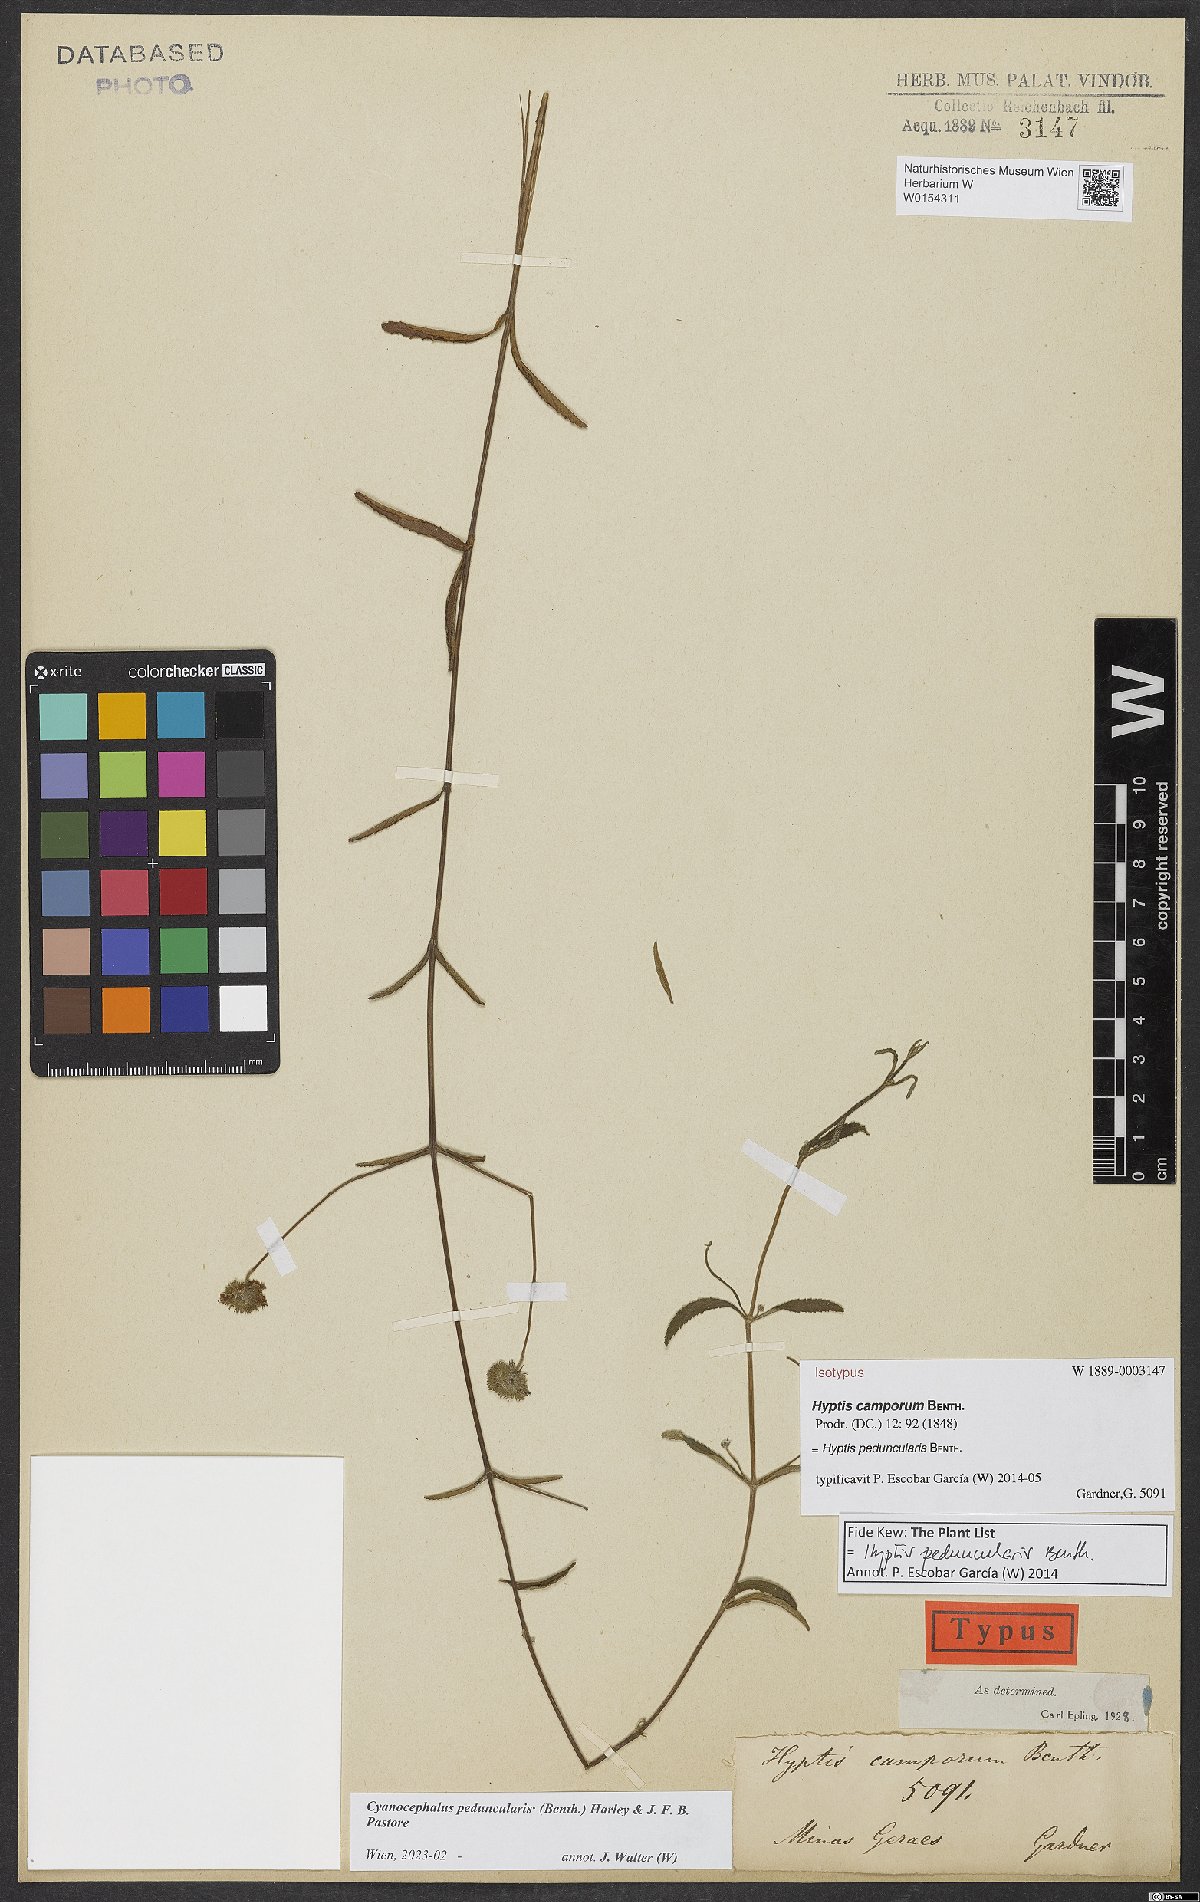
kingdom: Plantae
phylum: Tracheophyta
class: Magnoliopsida
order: Lamiales
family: Lamiaceae
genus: Cyanocephalus
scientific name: Cyanocephalus peduncularis
